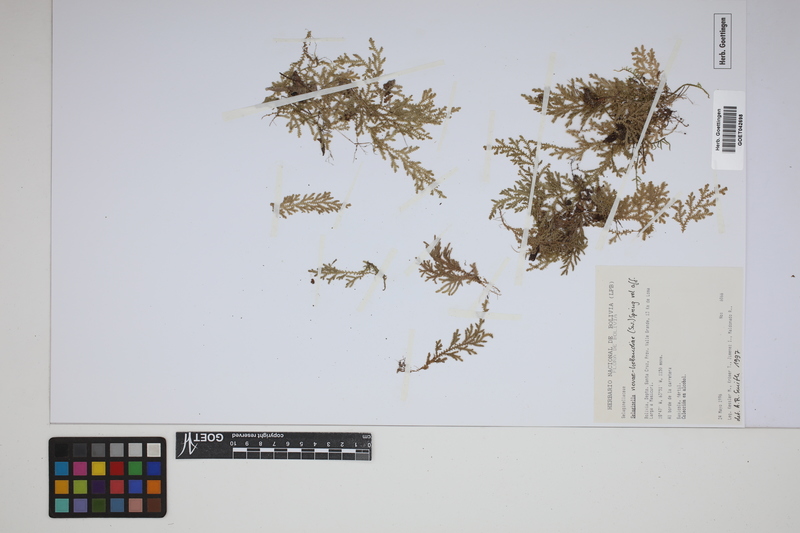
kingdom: Plantae
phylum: Tracheophyta
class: Lycopodiopsida
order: Selaginellales
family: Selaginellaceae
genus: Selaginella
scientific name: Selaginella novae-hollandiae
